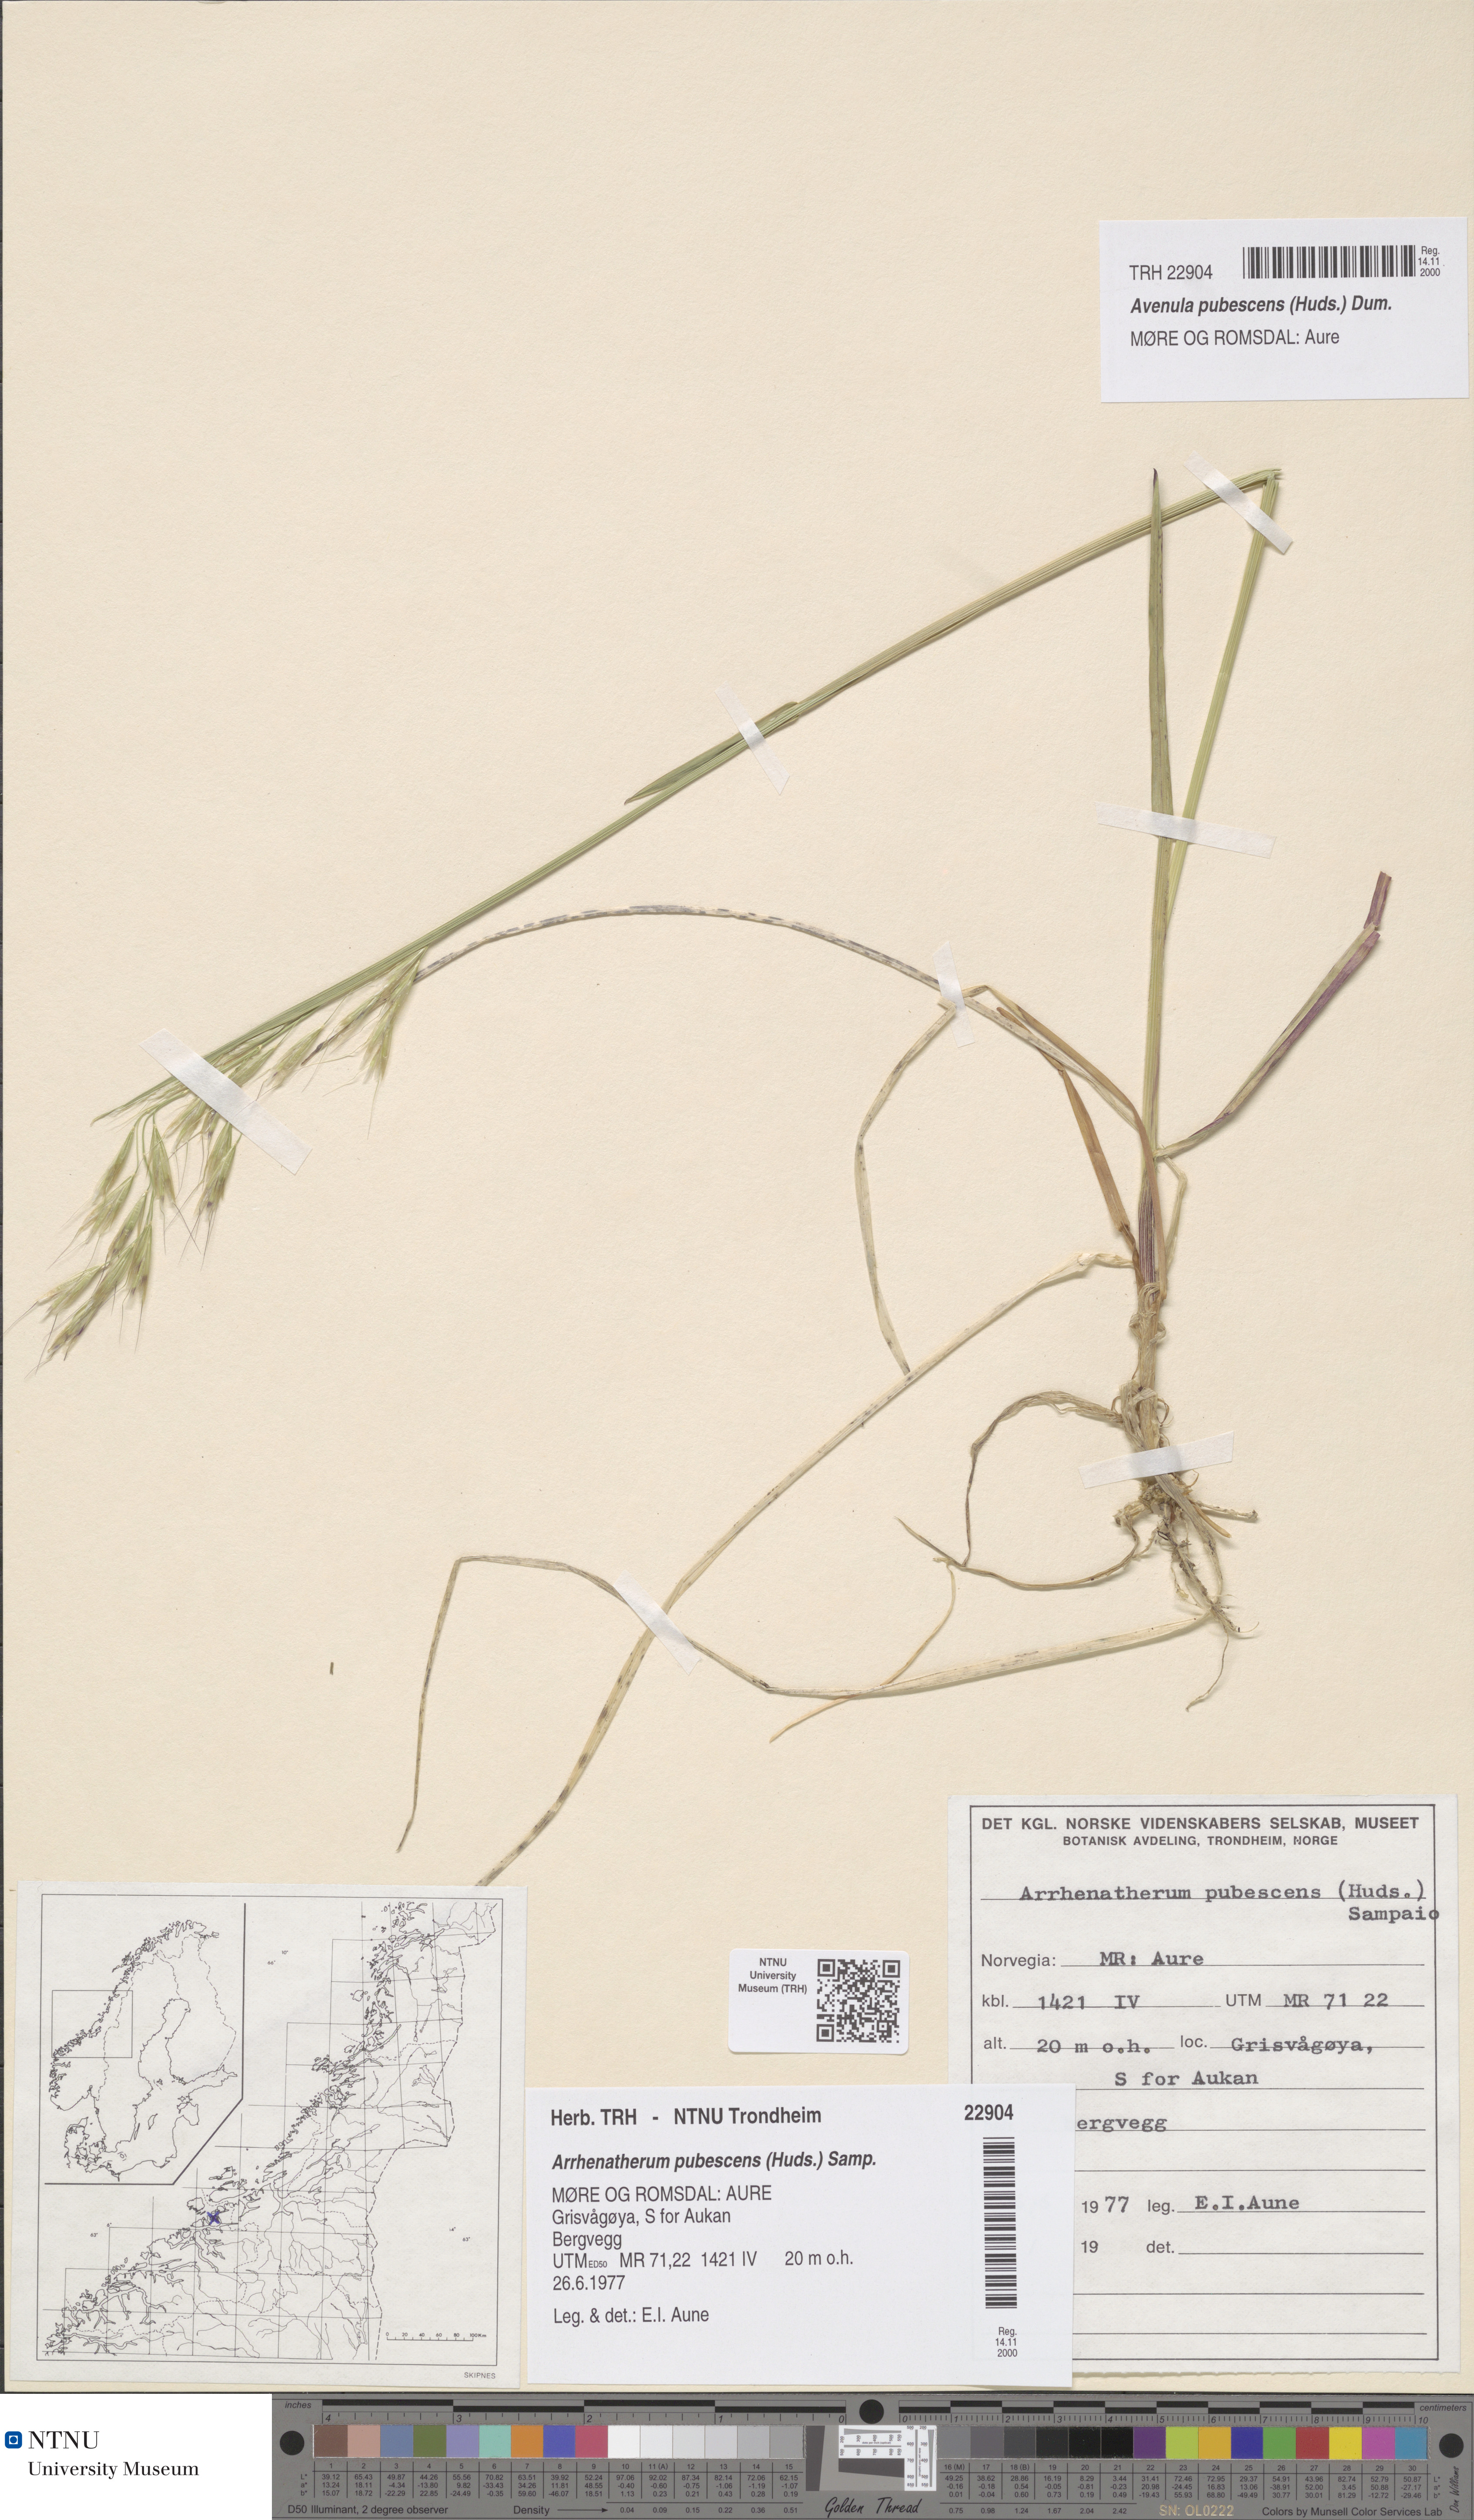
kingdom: Plantae
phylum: Tracheophyta
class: Liliopsida
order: Poales
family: Poaceae
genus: Avenula
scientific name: Avenula pubescens
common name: Downy alpine oatgrass
